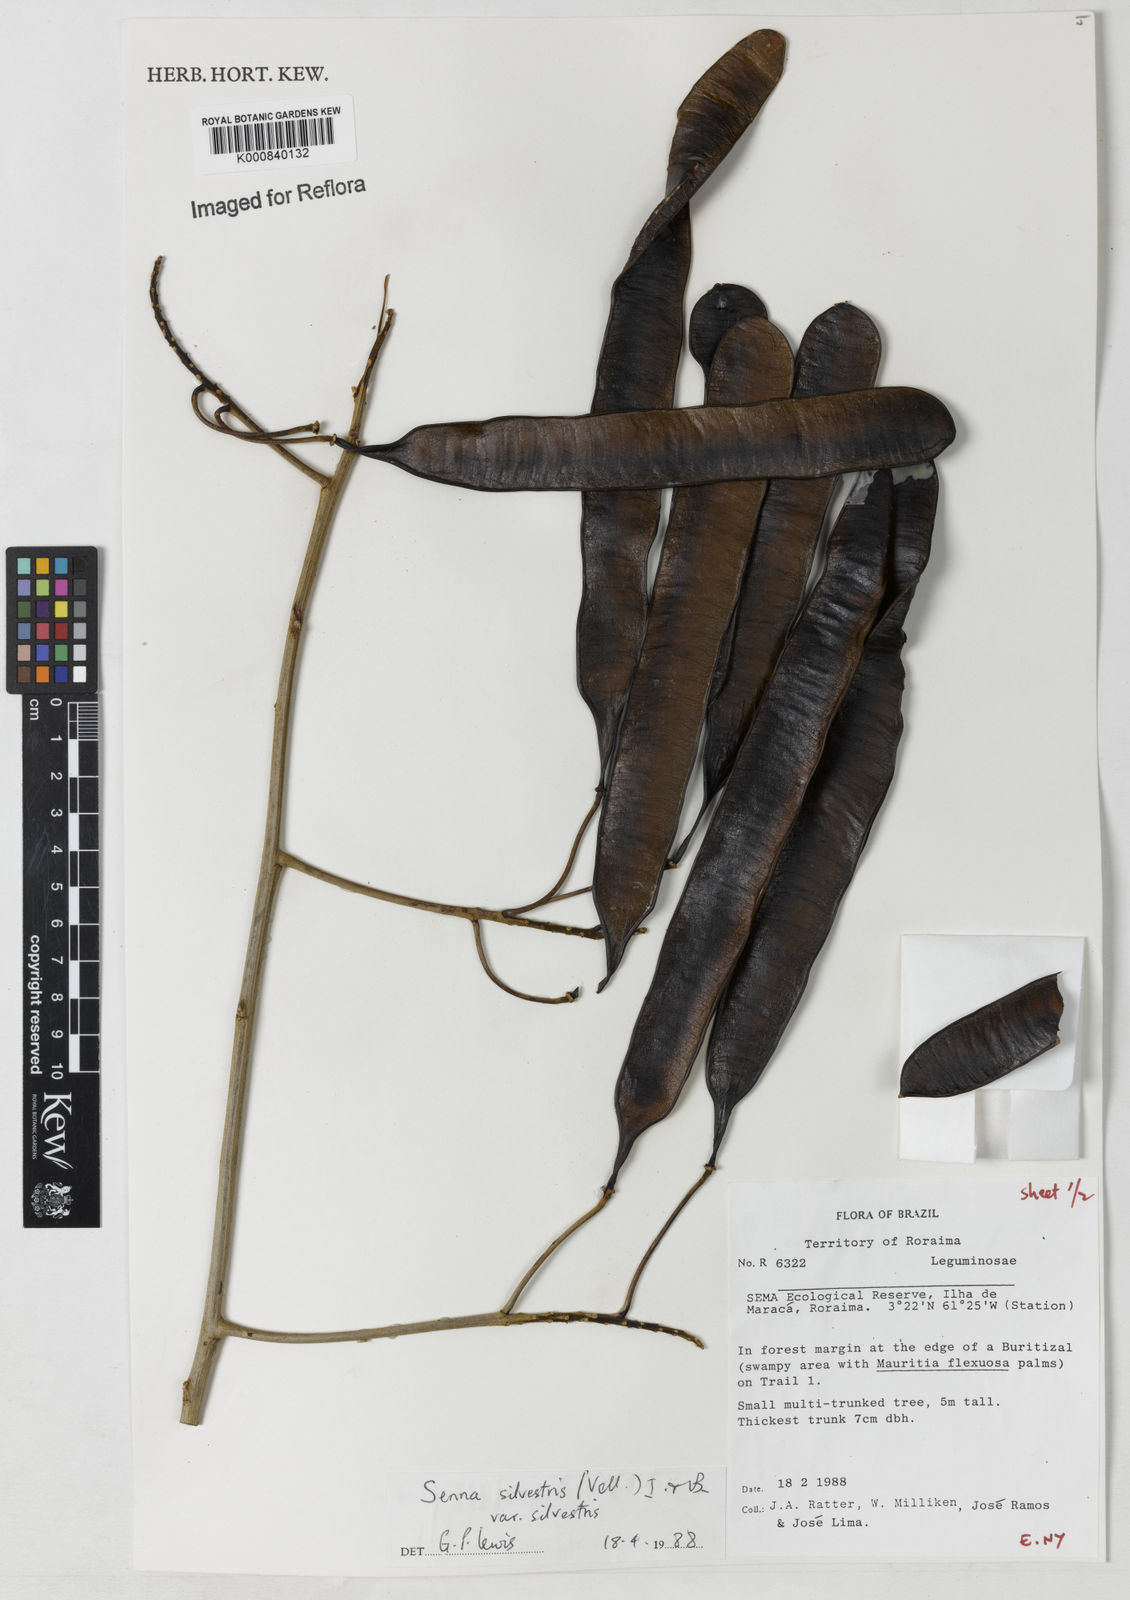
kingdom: Plantae
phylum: Tracheophyta
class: Magnoliopsida
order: Fabales
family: Fabaceae
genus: Senna
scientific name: Senna silvestris
